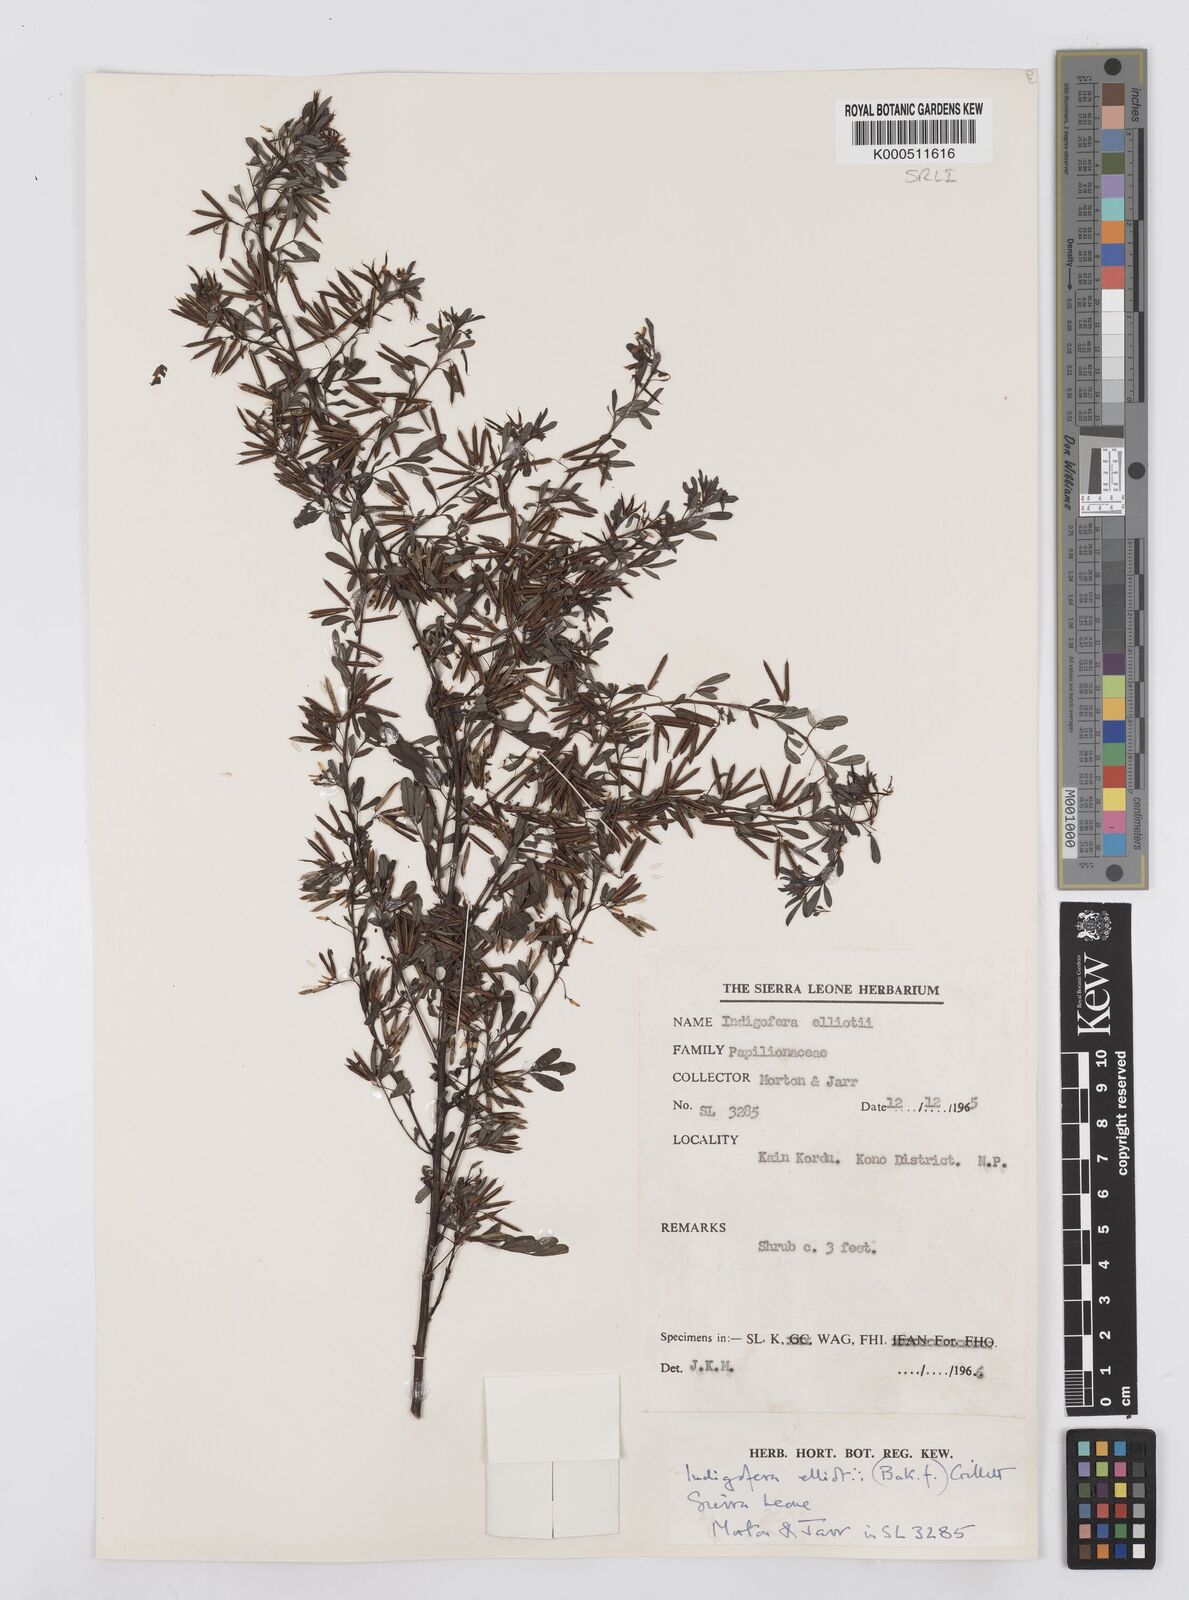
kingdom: Plantae
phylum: Tracheophyta
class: Magnoliopsida
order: Fabales
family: Fabaceae
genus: Indigofera
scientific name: Indigofera elliotii
